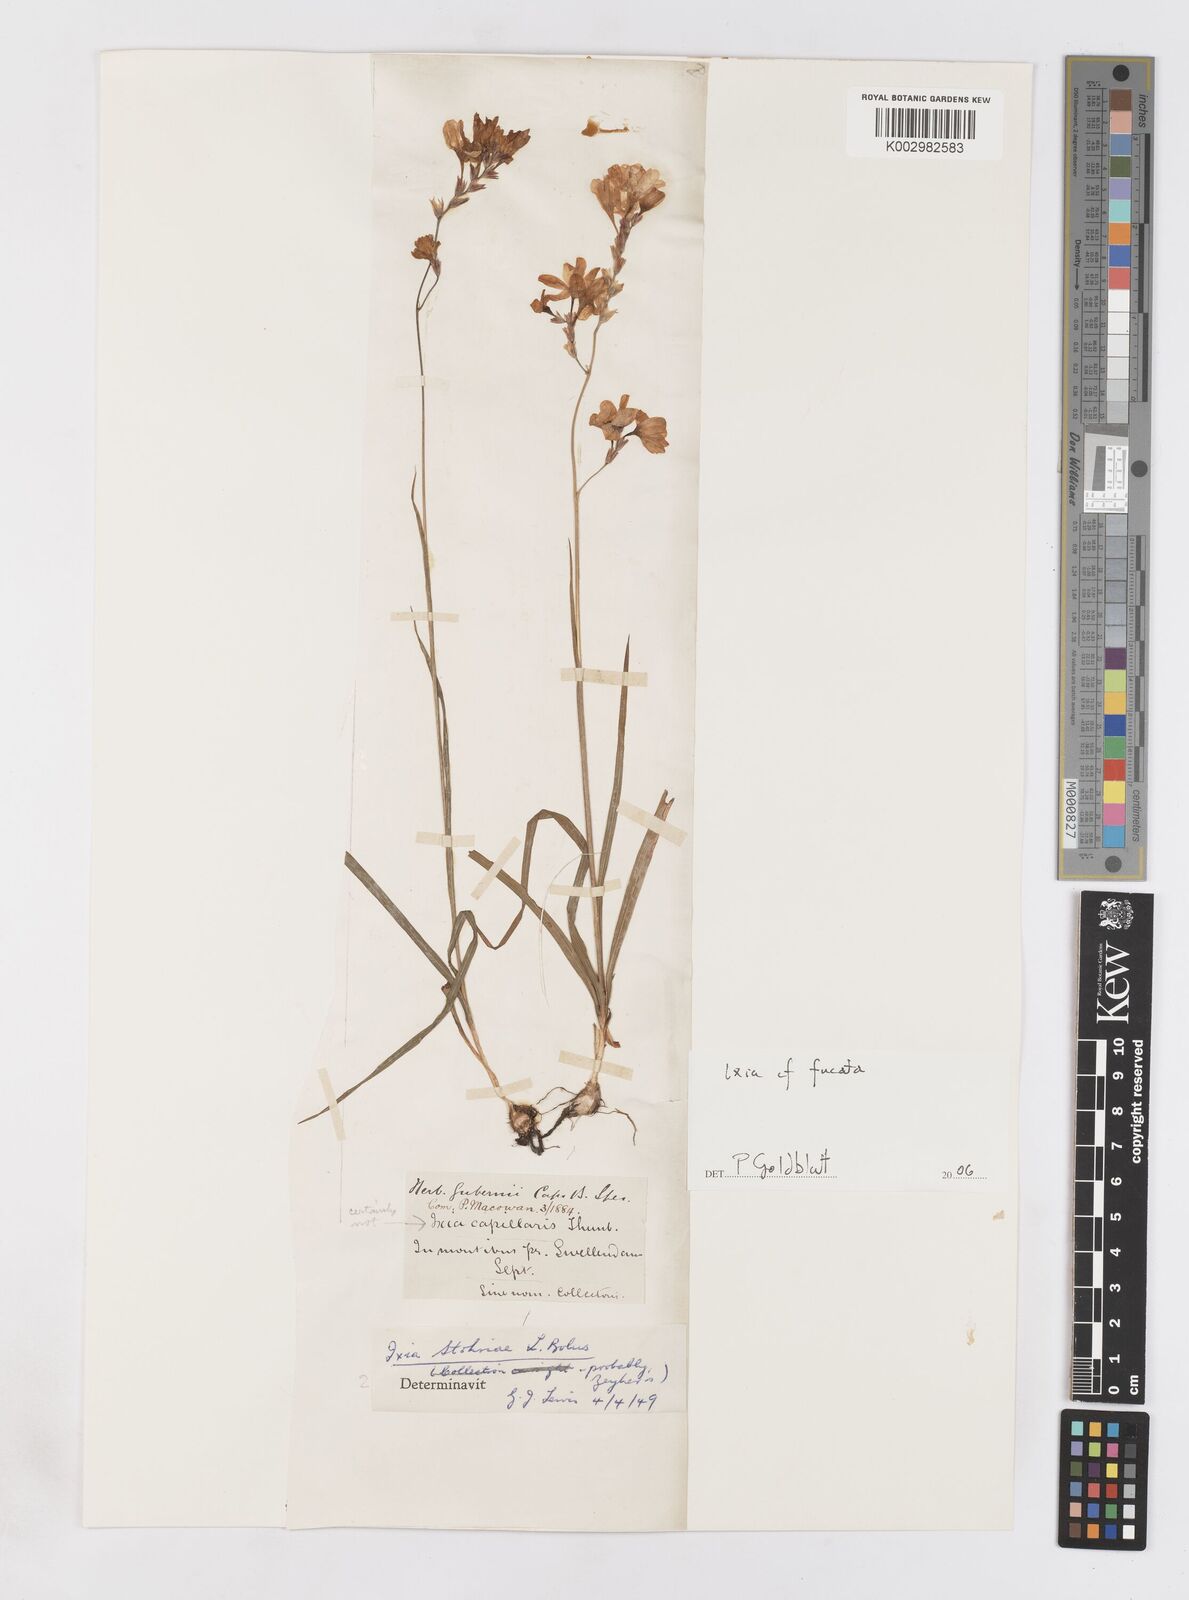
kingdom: Plantae
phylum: Tracheophyta
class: Liliopsida
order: Asparagales
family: Iridaceae
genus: Ixia
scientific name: Ixia fucata
